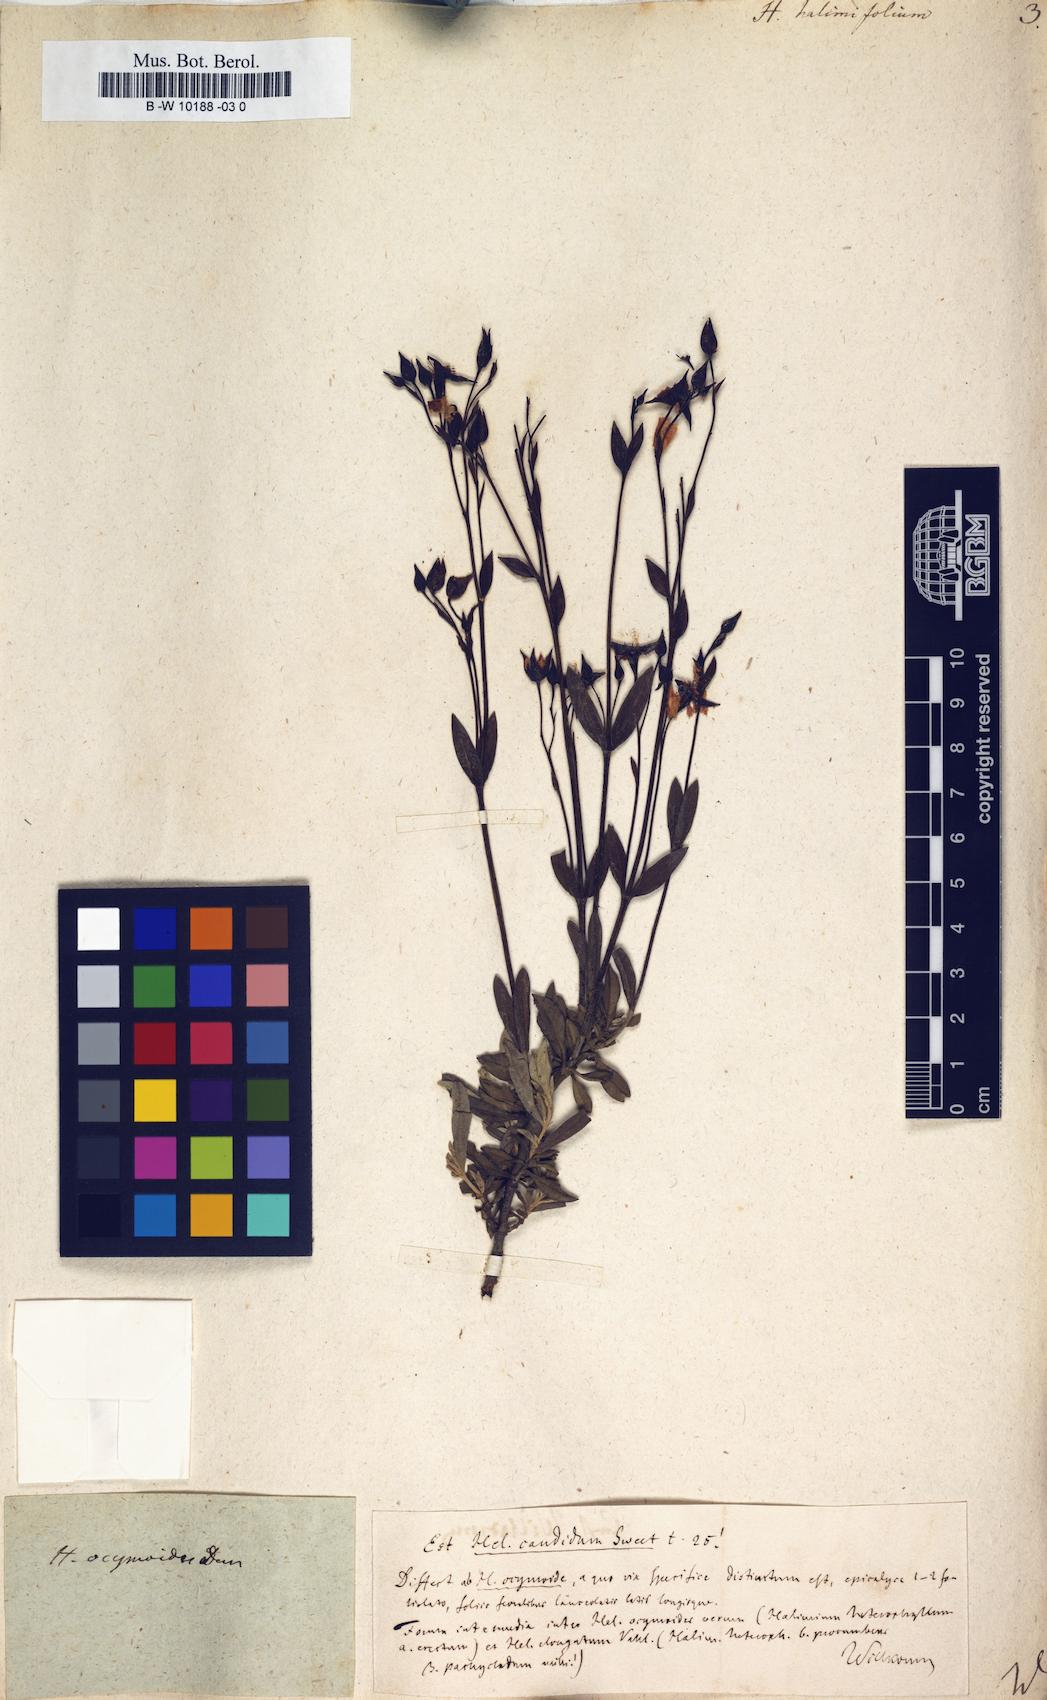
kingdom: Plantae
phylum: Tracheophyta
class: Magnoliopsida
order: Malvales
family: Cistaceae
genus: Halimium
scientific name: Halimium halimifolium
